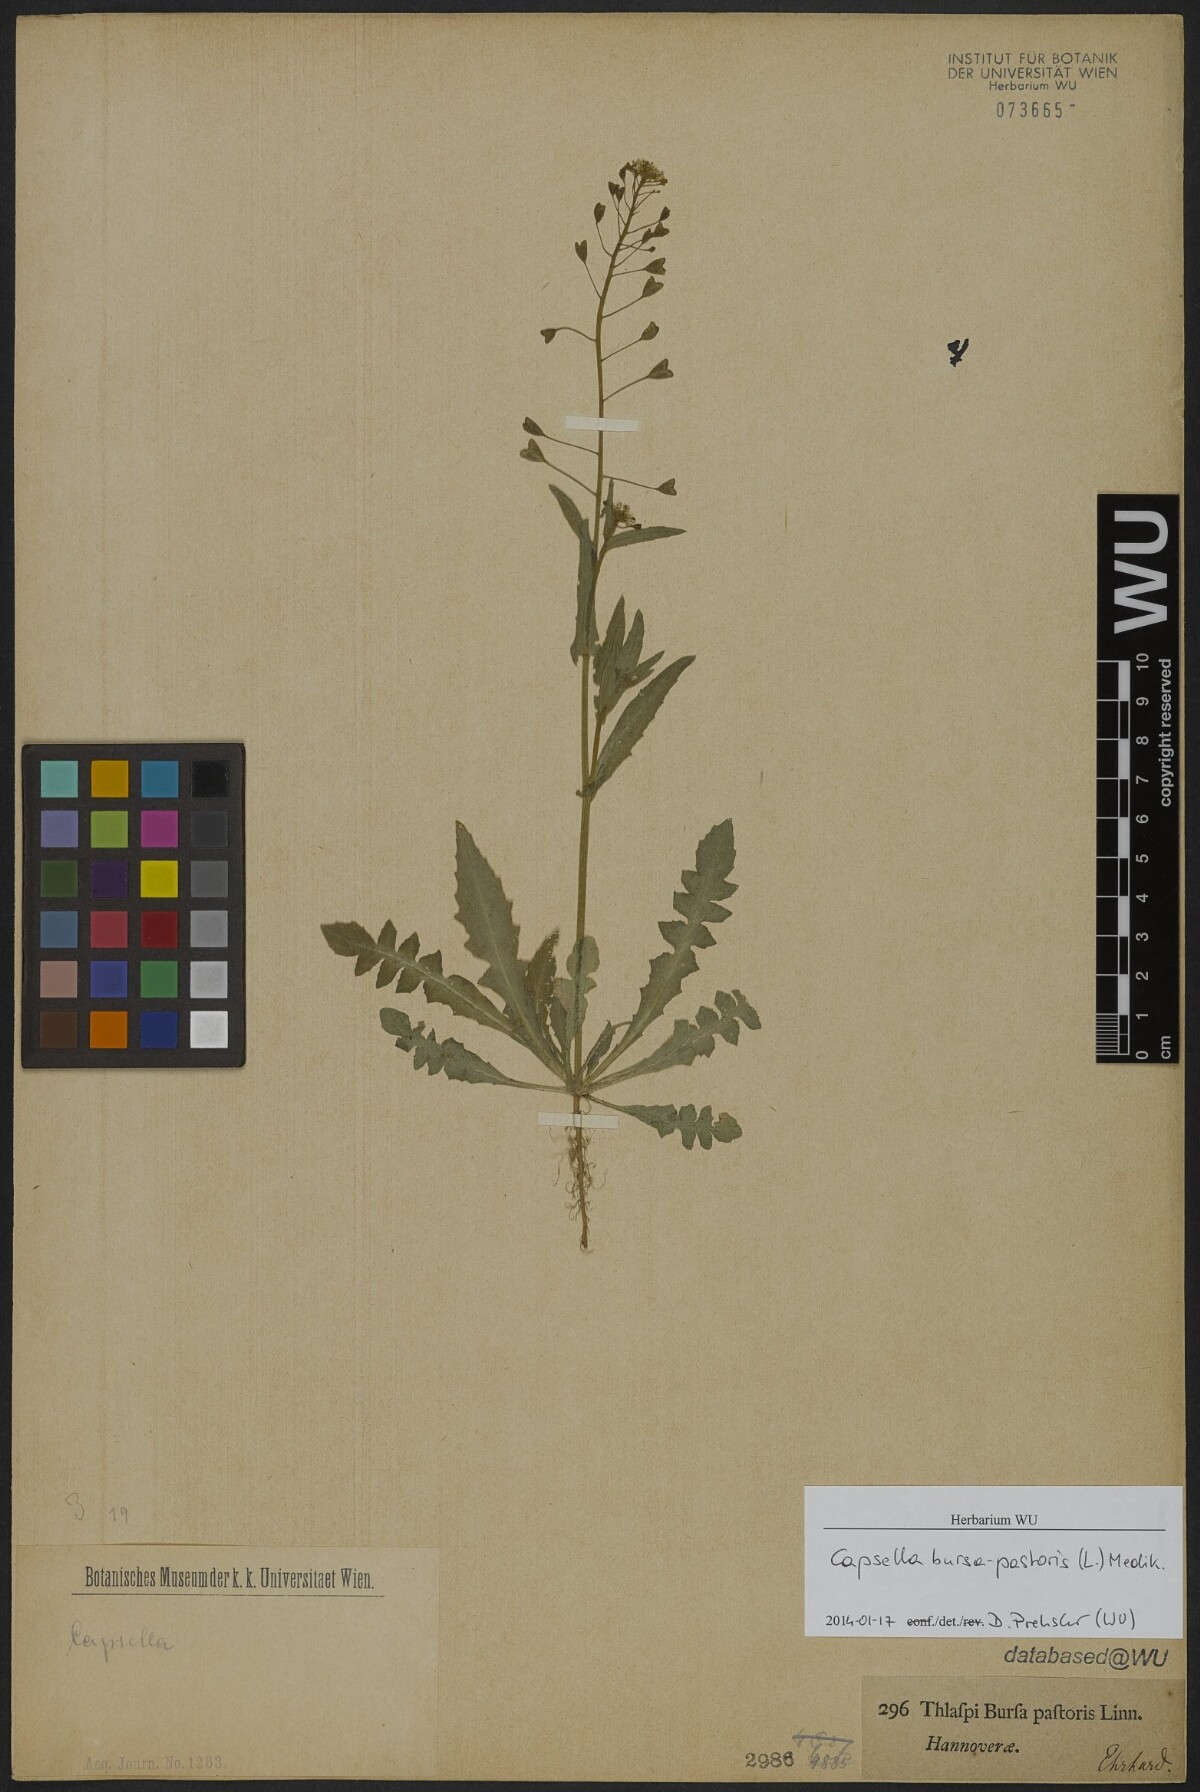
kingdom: Plantae
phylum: Tracheophyta
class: Magnoliopsida
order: Brassicales
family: Brassicaceae
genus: Capsella
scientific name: Capsella bursa-pastoris
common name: Shepherd's purse
